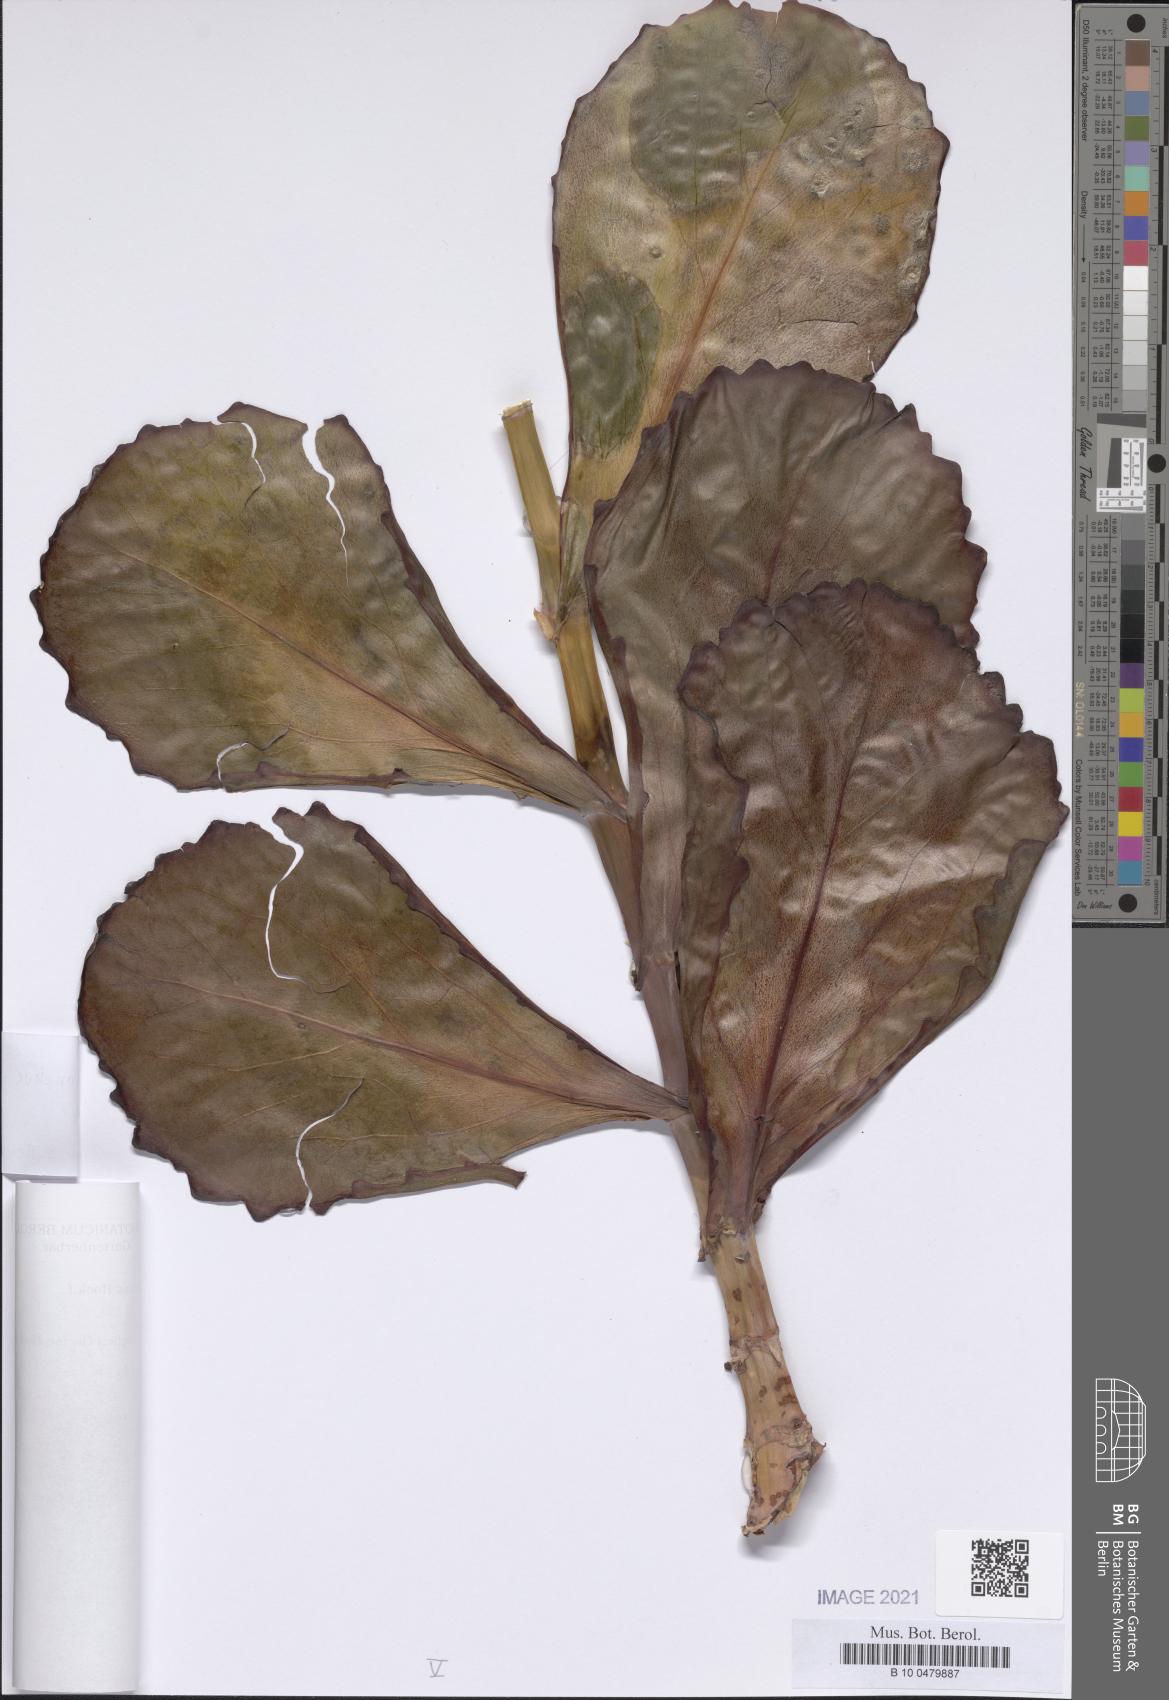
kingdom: Plantae
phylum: Tracheophyta
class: Magnoliopsida
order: Saxifragales
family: Crassulaceae
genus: Kalanchoe
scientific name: Kalanchoe marmorata
